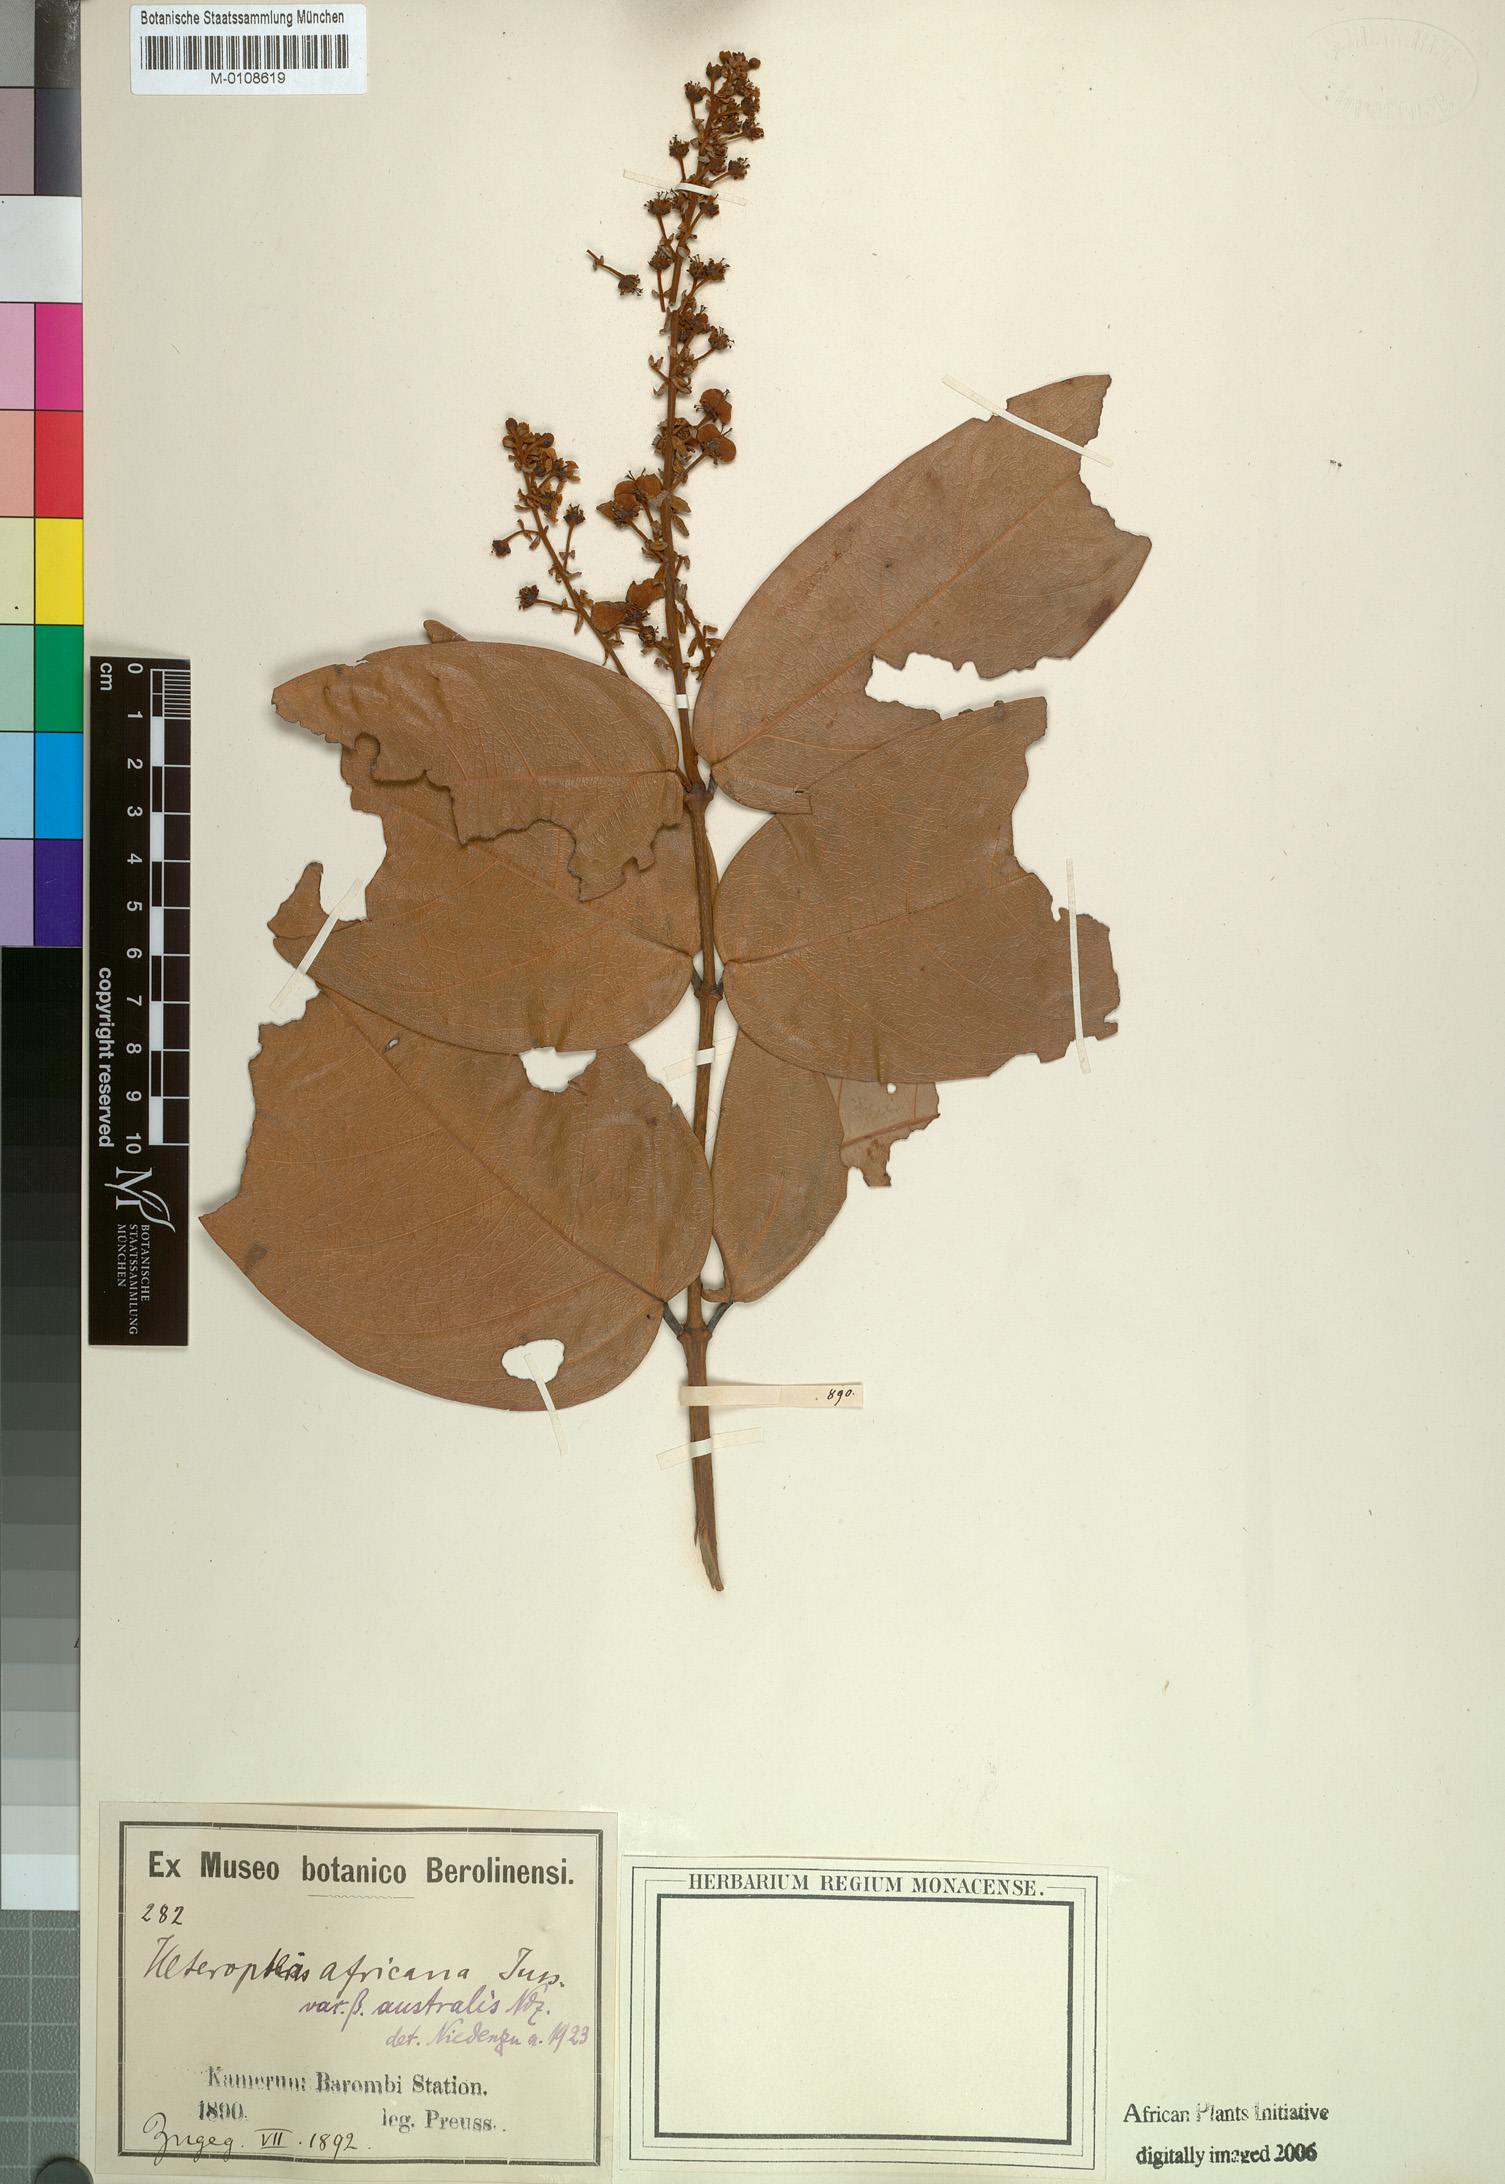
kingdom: Plantae
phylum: Tracheophyta
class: Magnoliopsida
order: Malpighiales
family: Malpighiaceae
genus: Heteropterys
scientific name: Heteropterys leona
